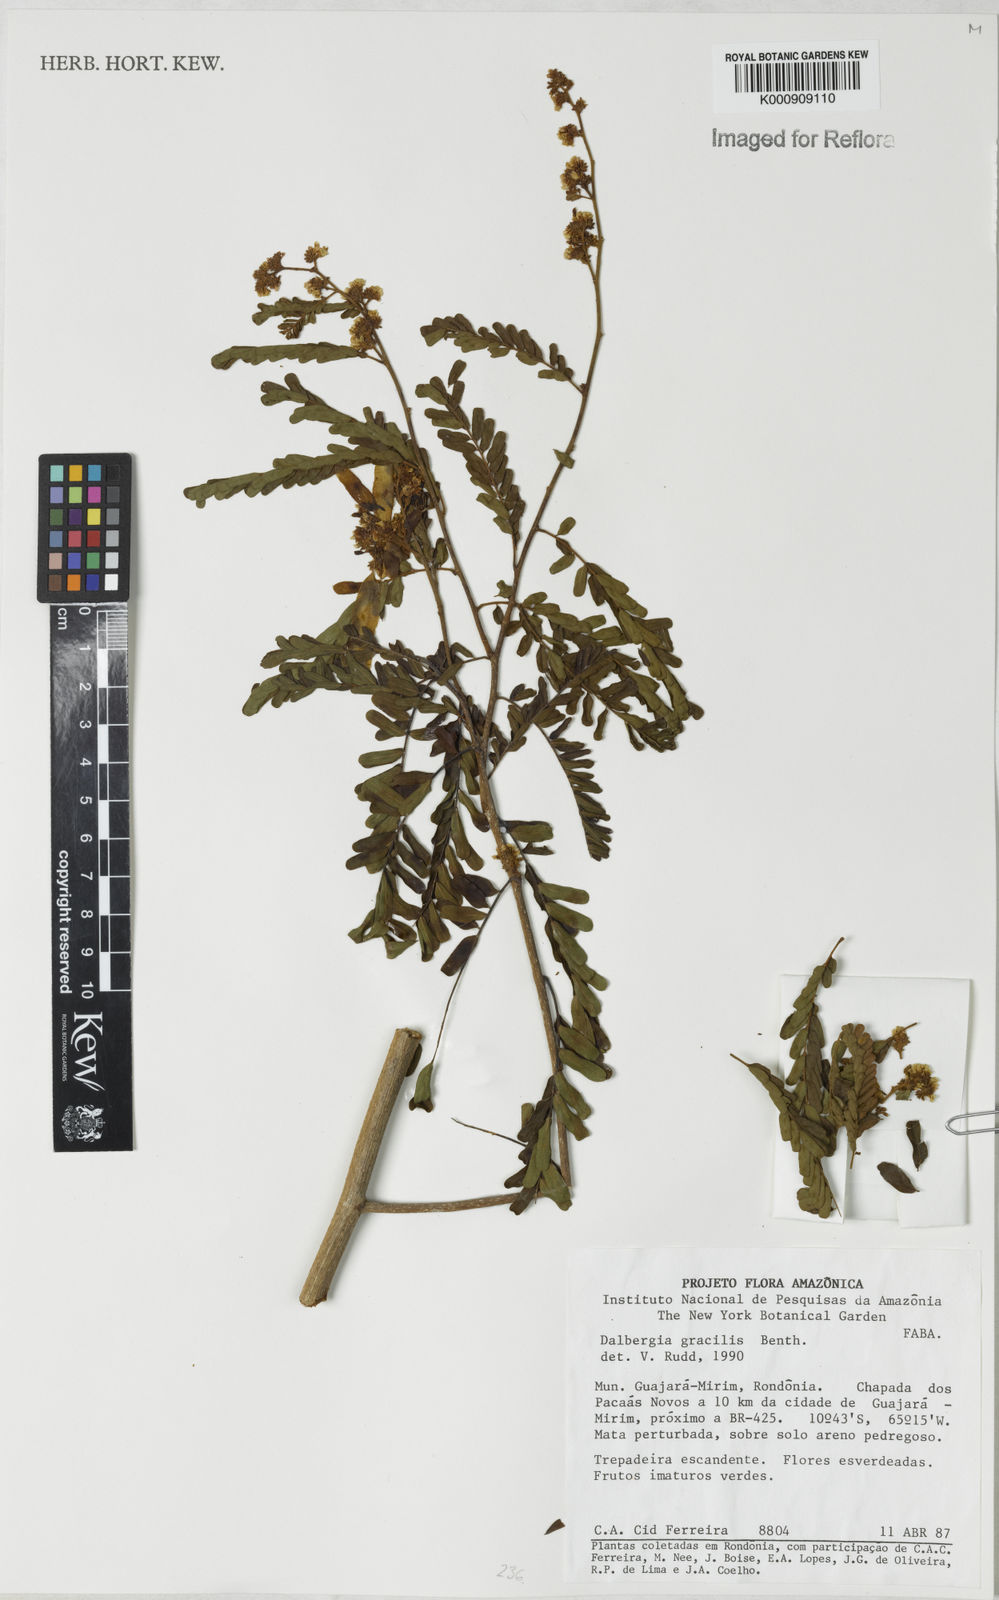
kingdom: Plantae
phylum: Tracheophyta
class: Magnoliopsida
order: Fabales
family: Fabaceae
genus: Dalbergia
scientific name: Dalbergia gracilis
